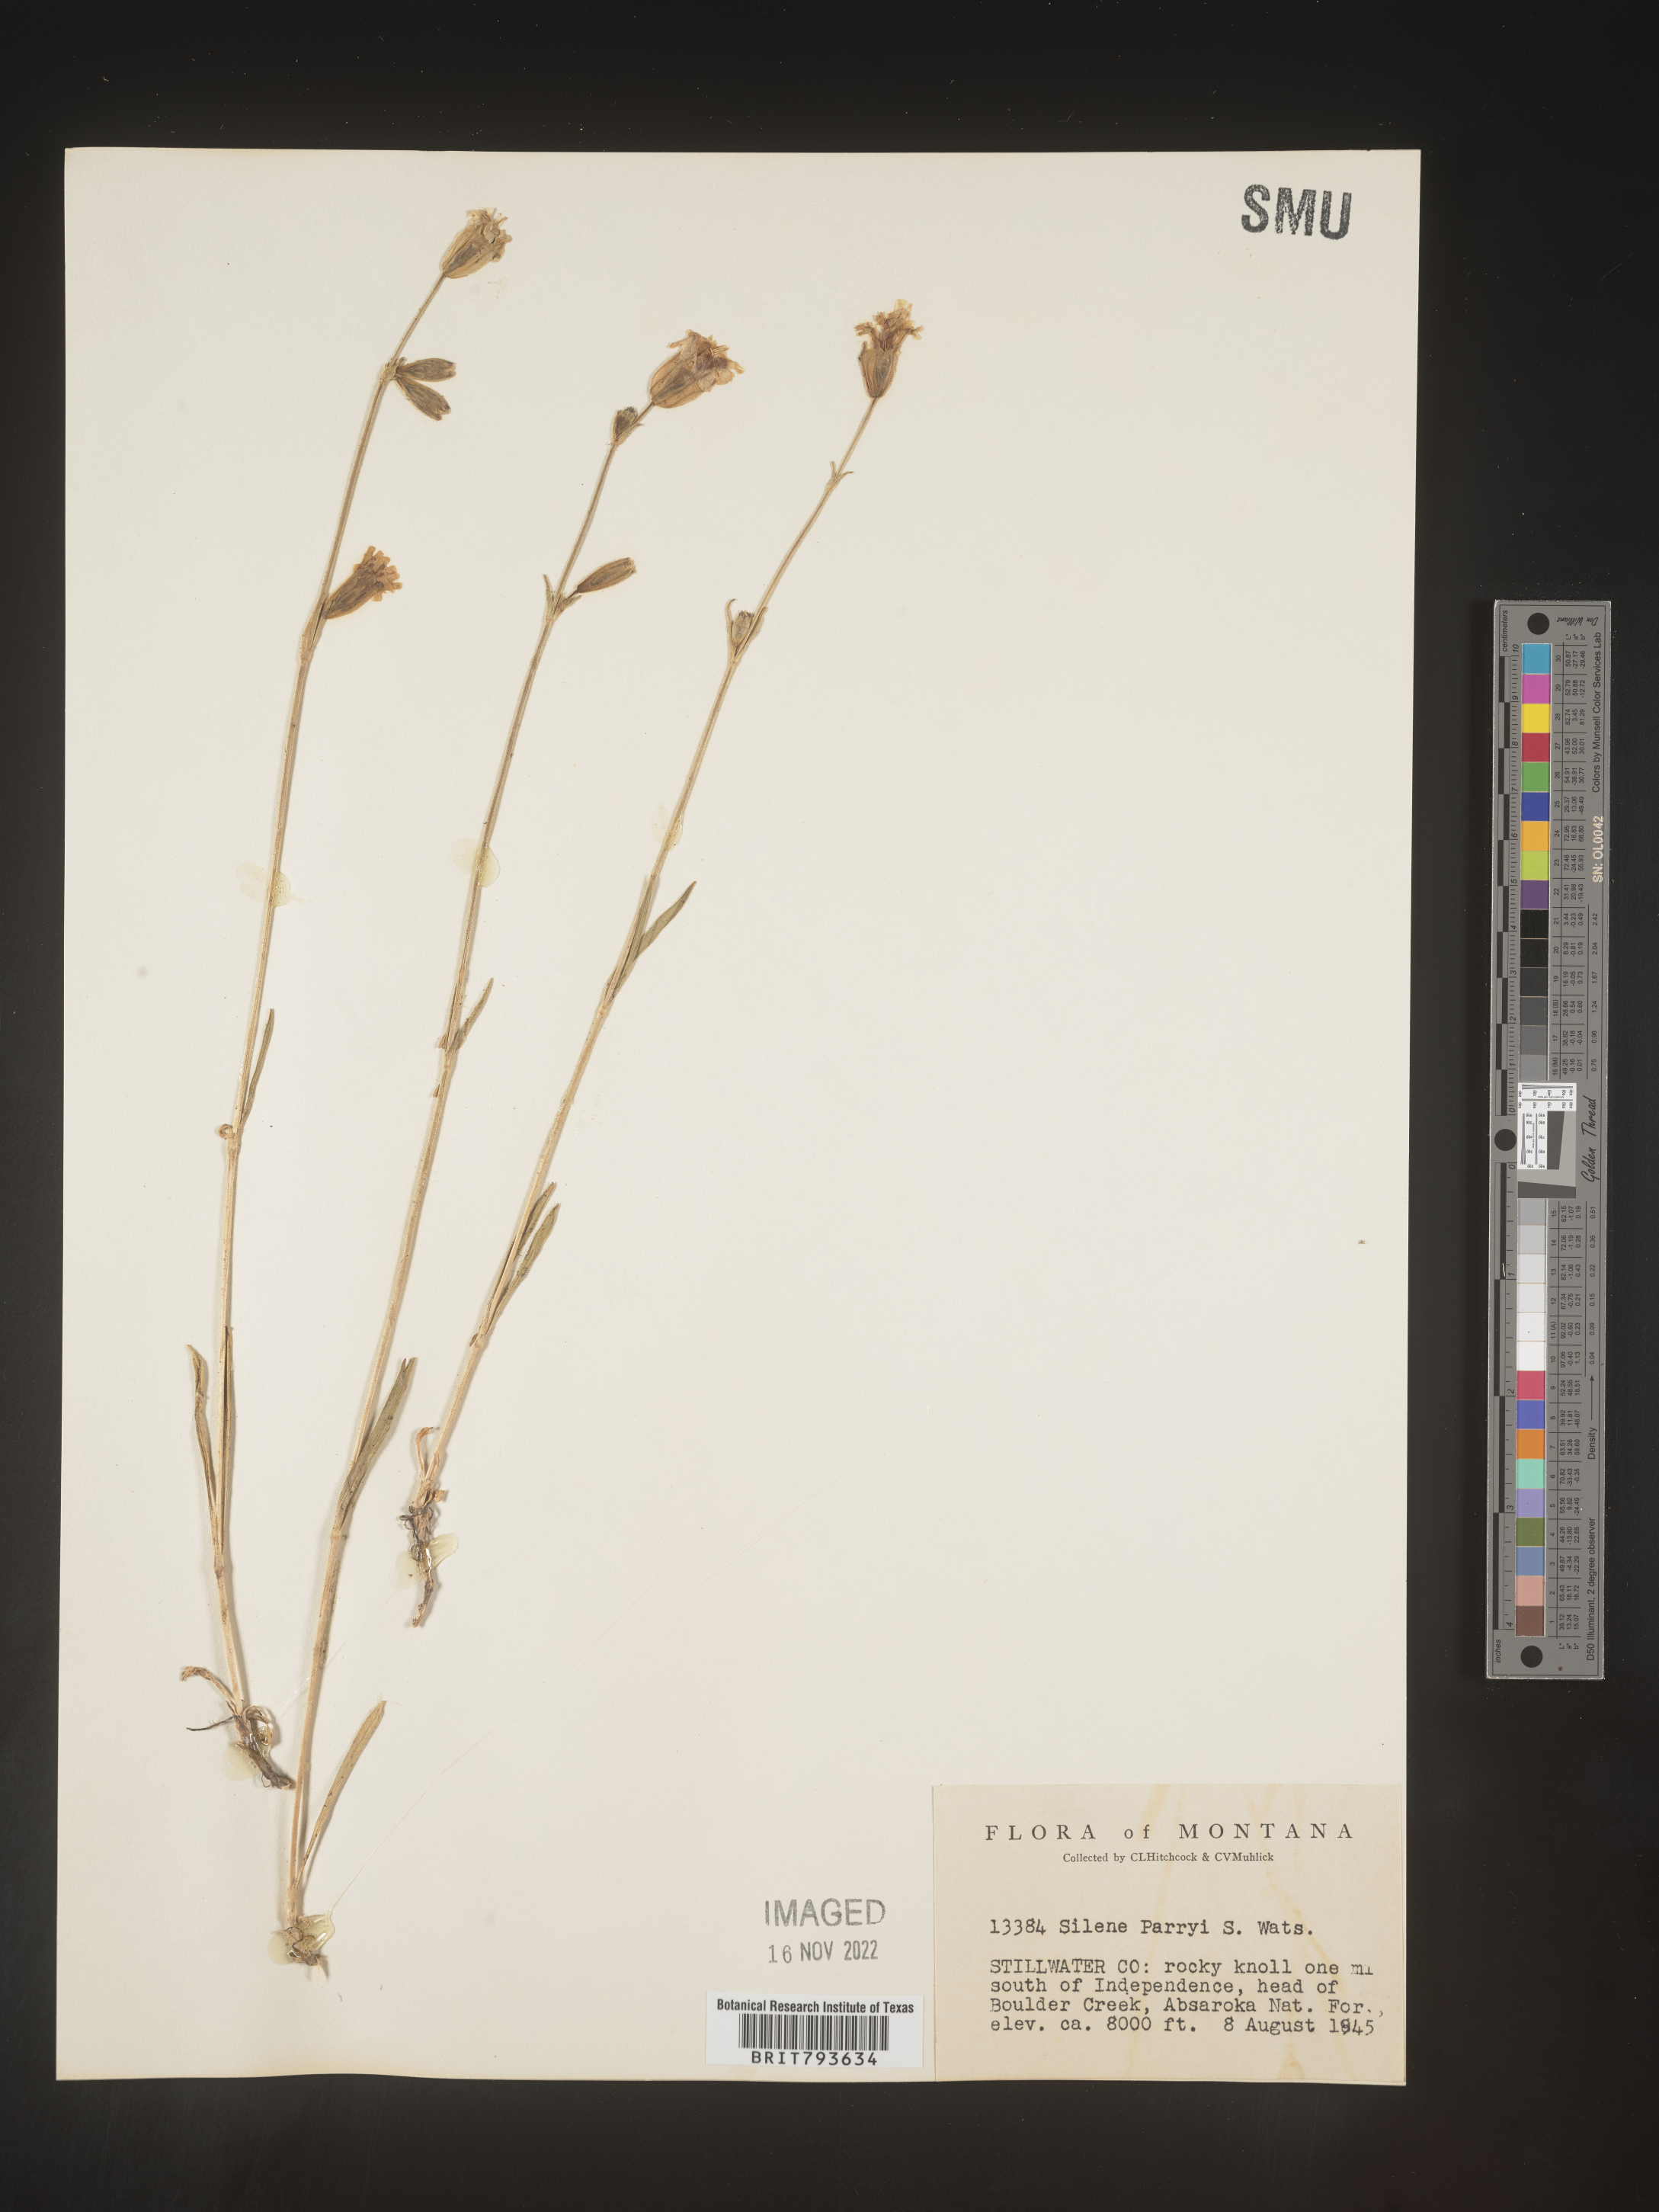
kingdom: Plantae
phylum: Tracheophyta
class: Magnoliopsida
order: Caryophyllales
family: Caryophyllaceae
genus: Silene
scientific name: Silene parryi
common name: Parry's campion
